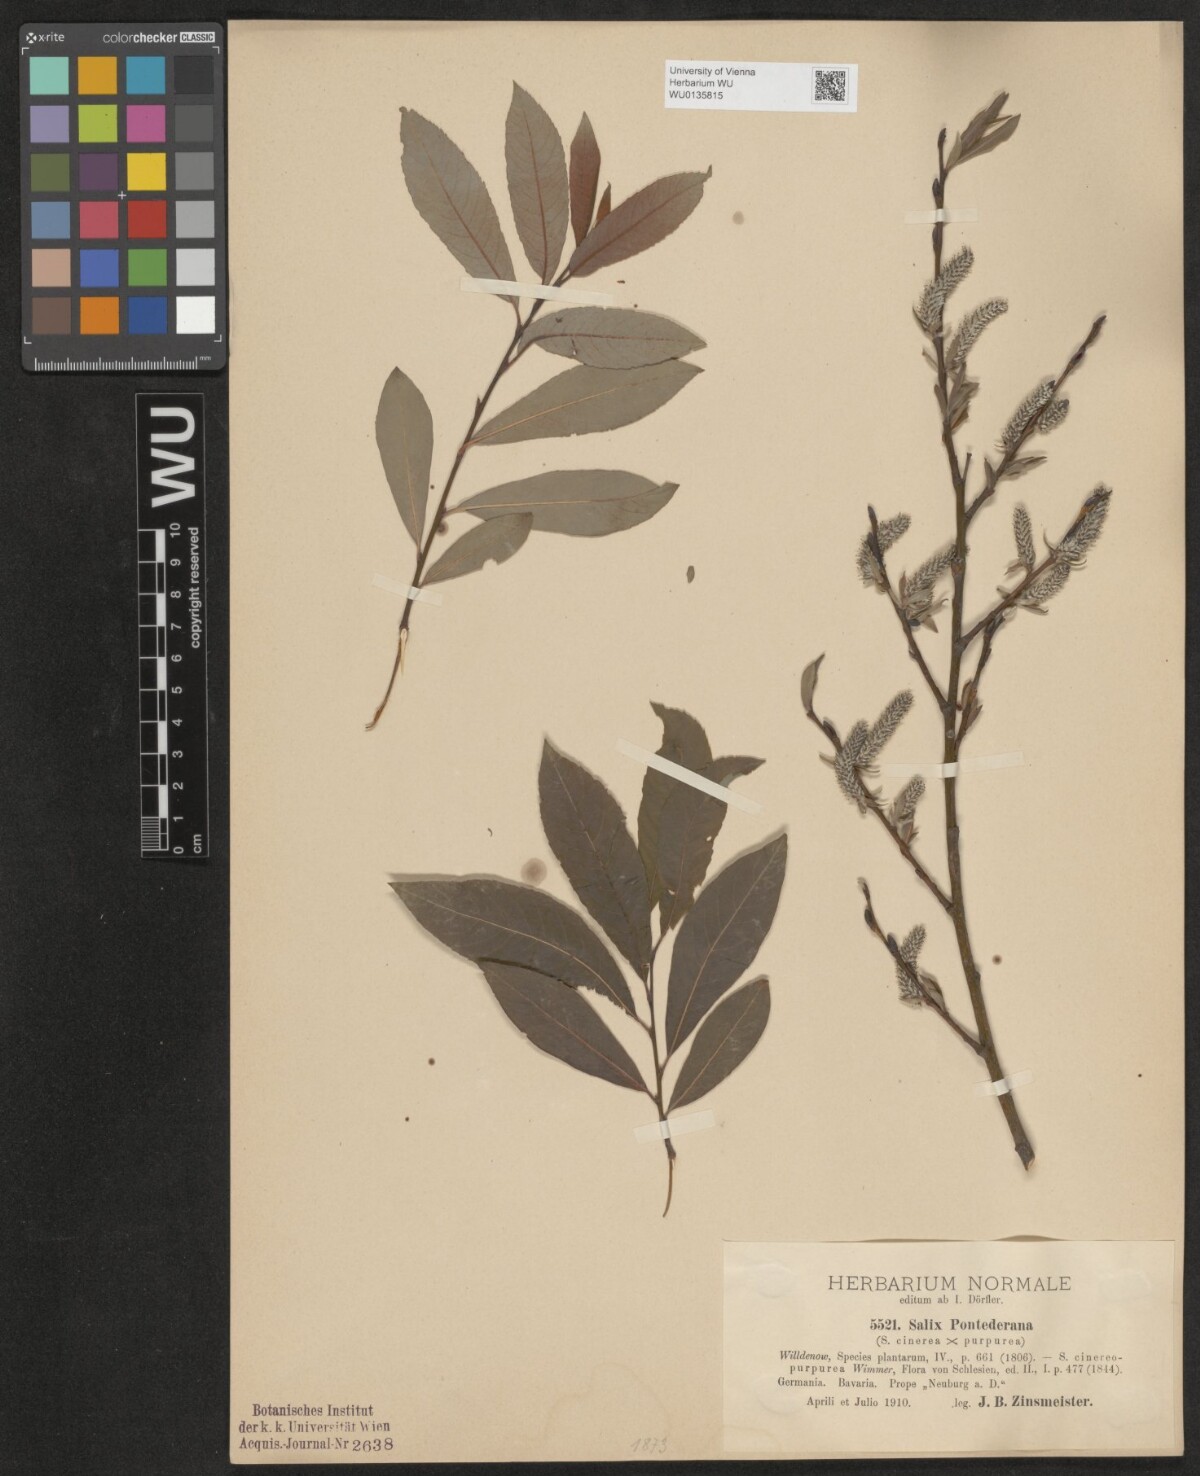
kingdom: Plantae
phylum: Tracheophyta
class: Magnoliopsida
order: Malpighiales
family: Salicaceae
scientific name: Salicaceae
